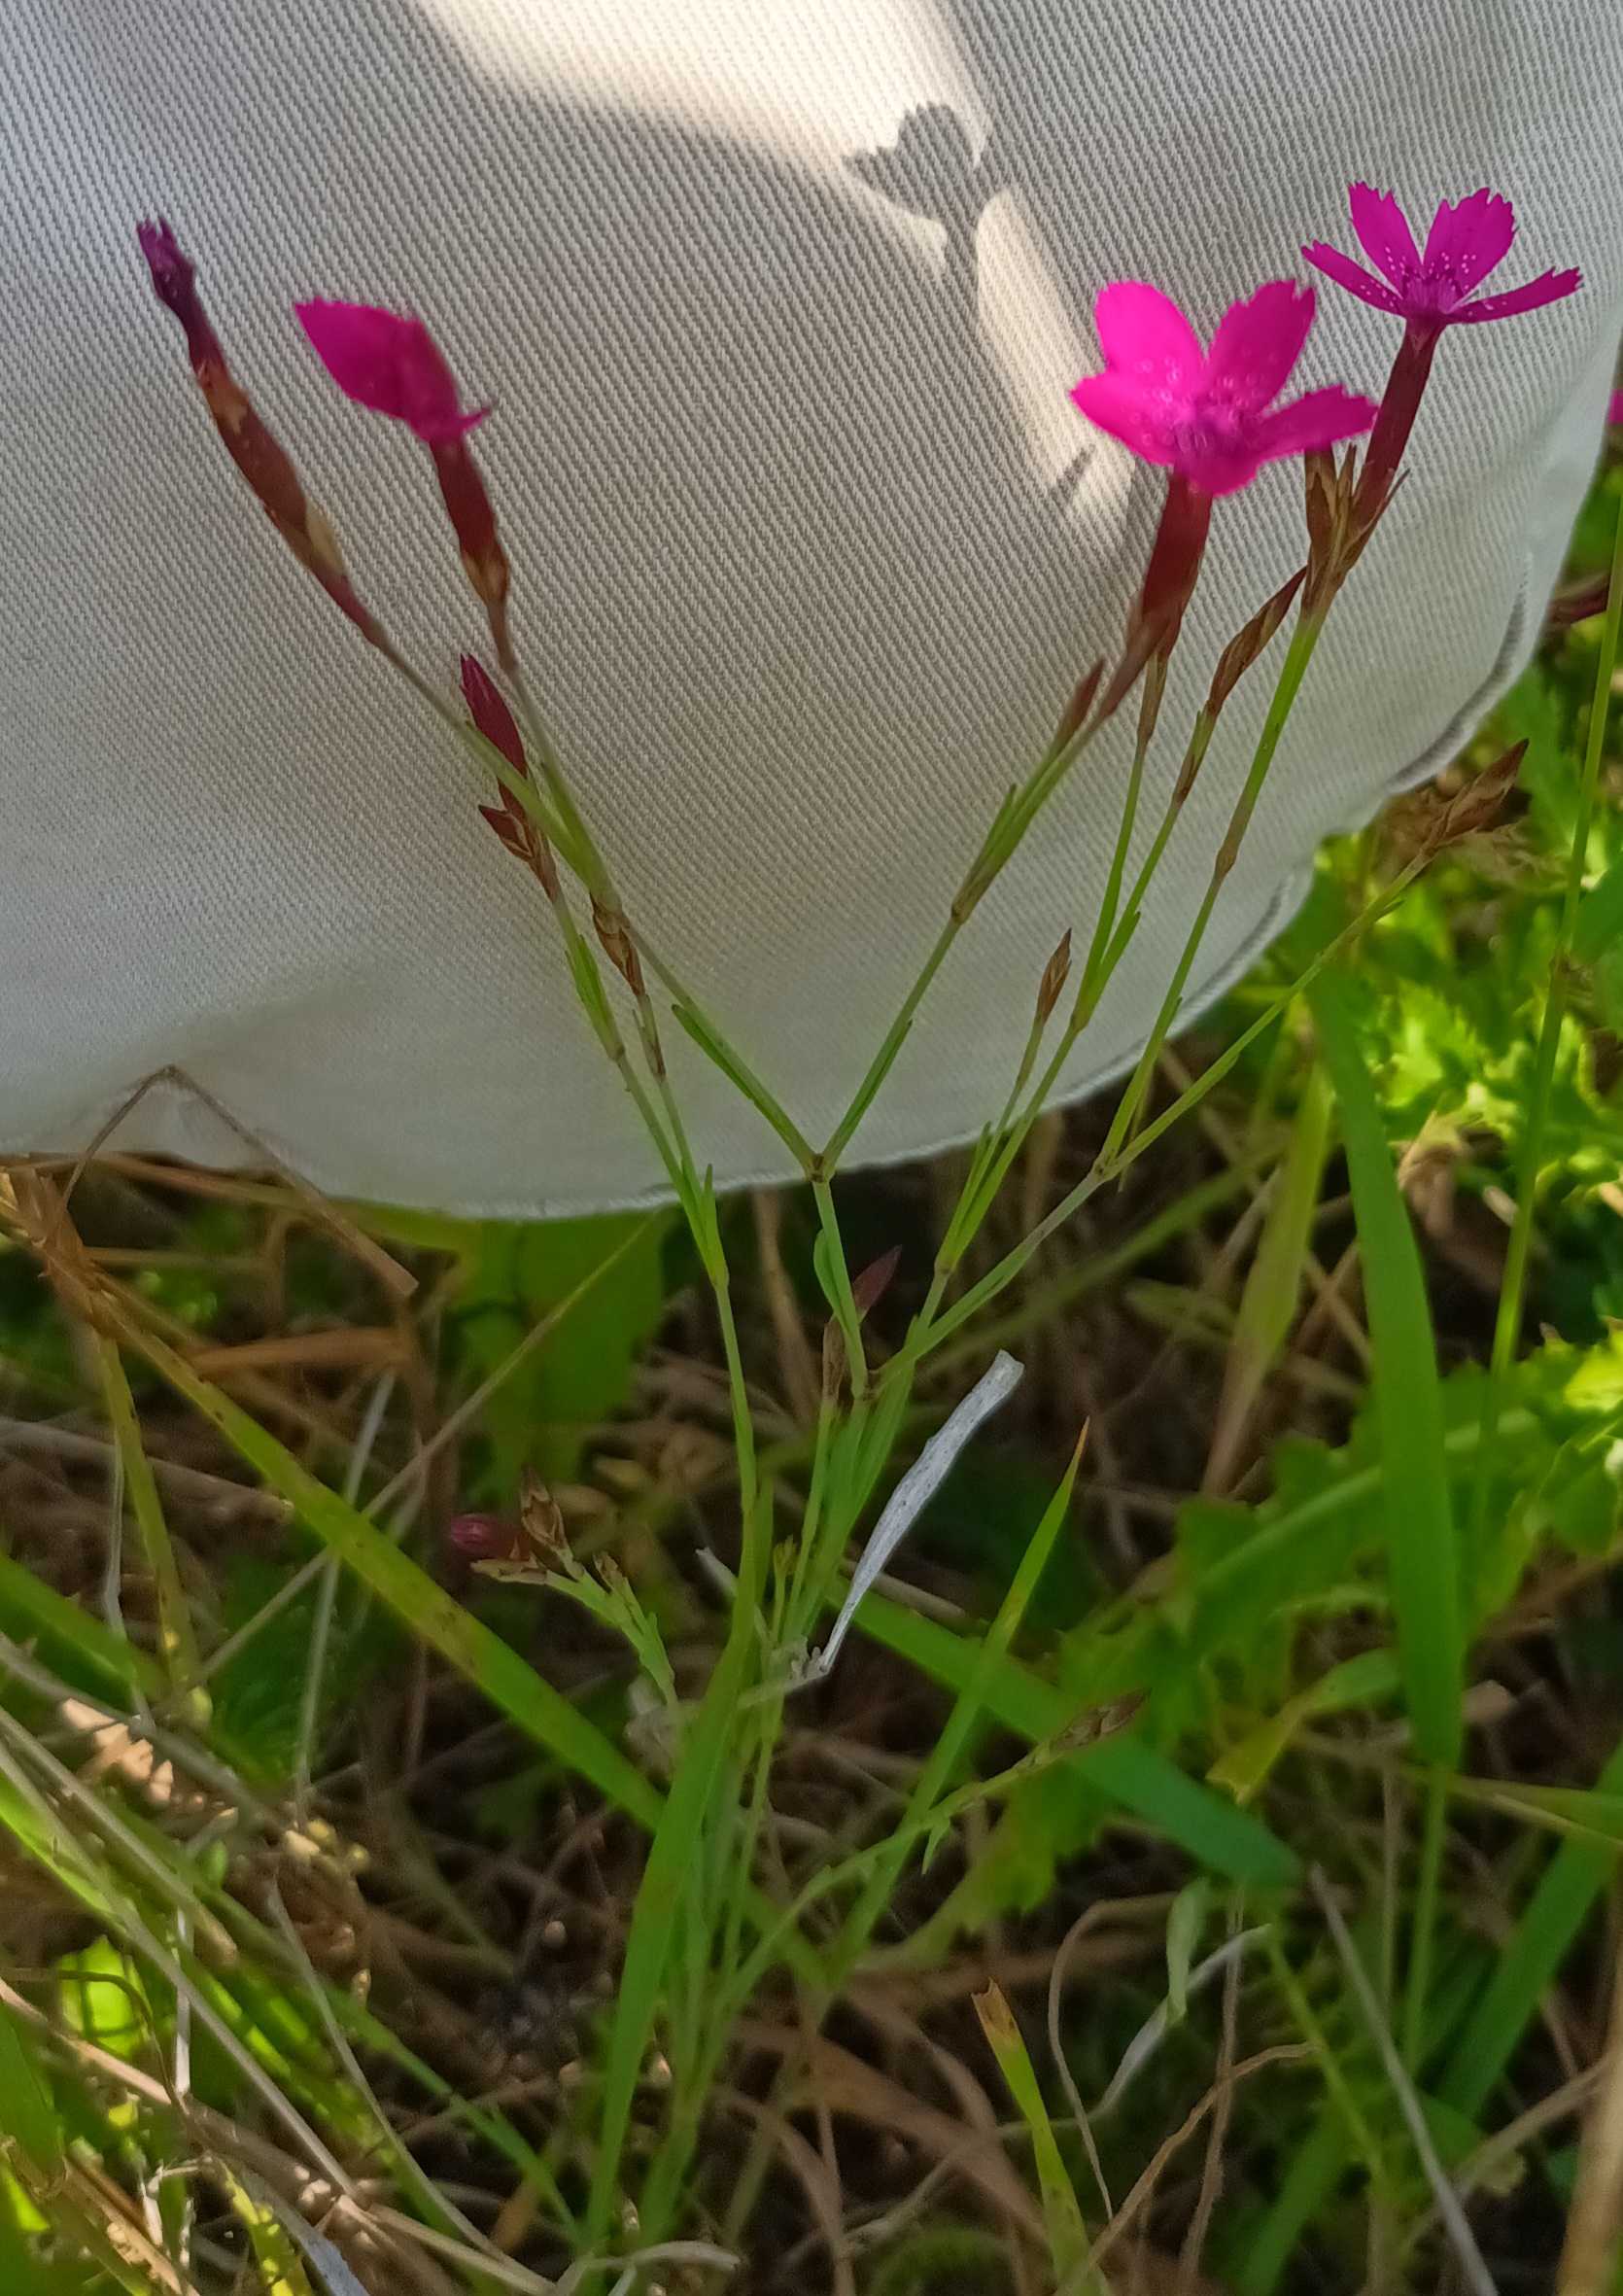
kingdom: Plantae
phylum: Tracheophyta
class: Magnoliopsida
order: Caryophyllales
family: Caryophyllaceae
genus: Dianthus
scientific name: Dianthus deltoides
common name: Bakke-nellike
